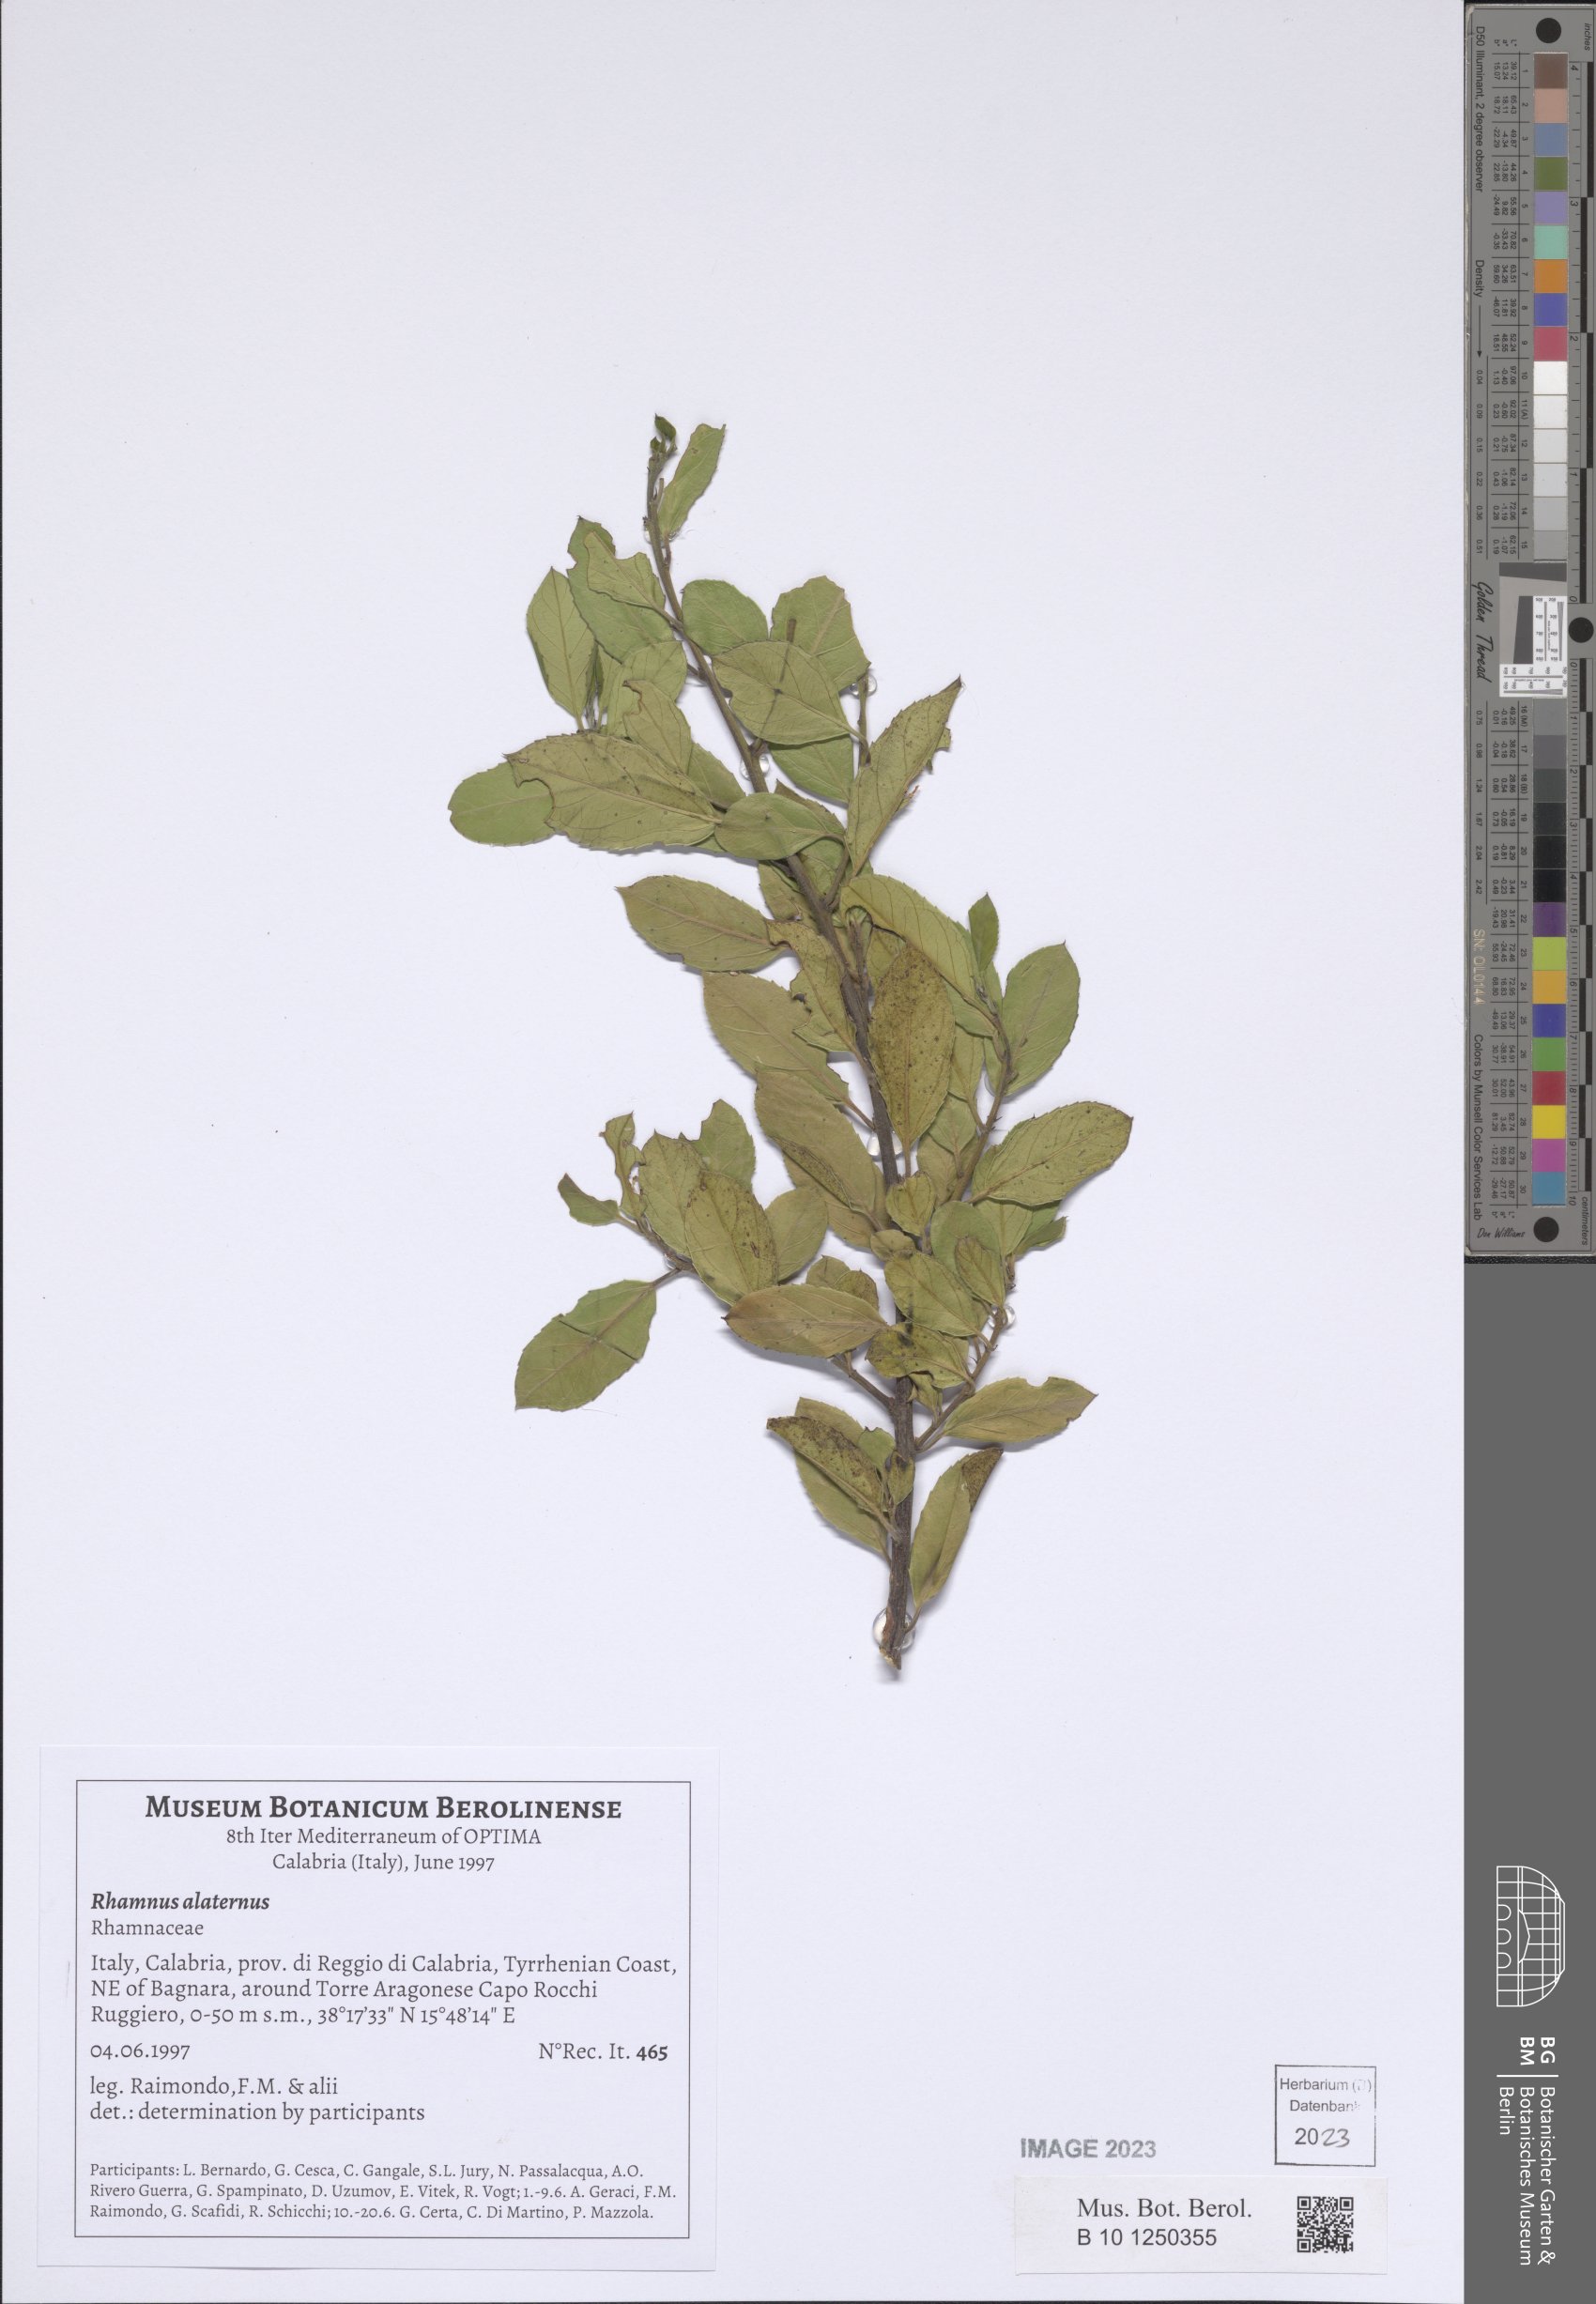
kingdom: Plantae
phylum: Tracheophyta
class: Magnoliopsida
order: Rosales
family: Rhamnaceae
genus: Rhamnus
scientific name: Rhamnus alaternus
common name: Mediterranean buckthorn
